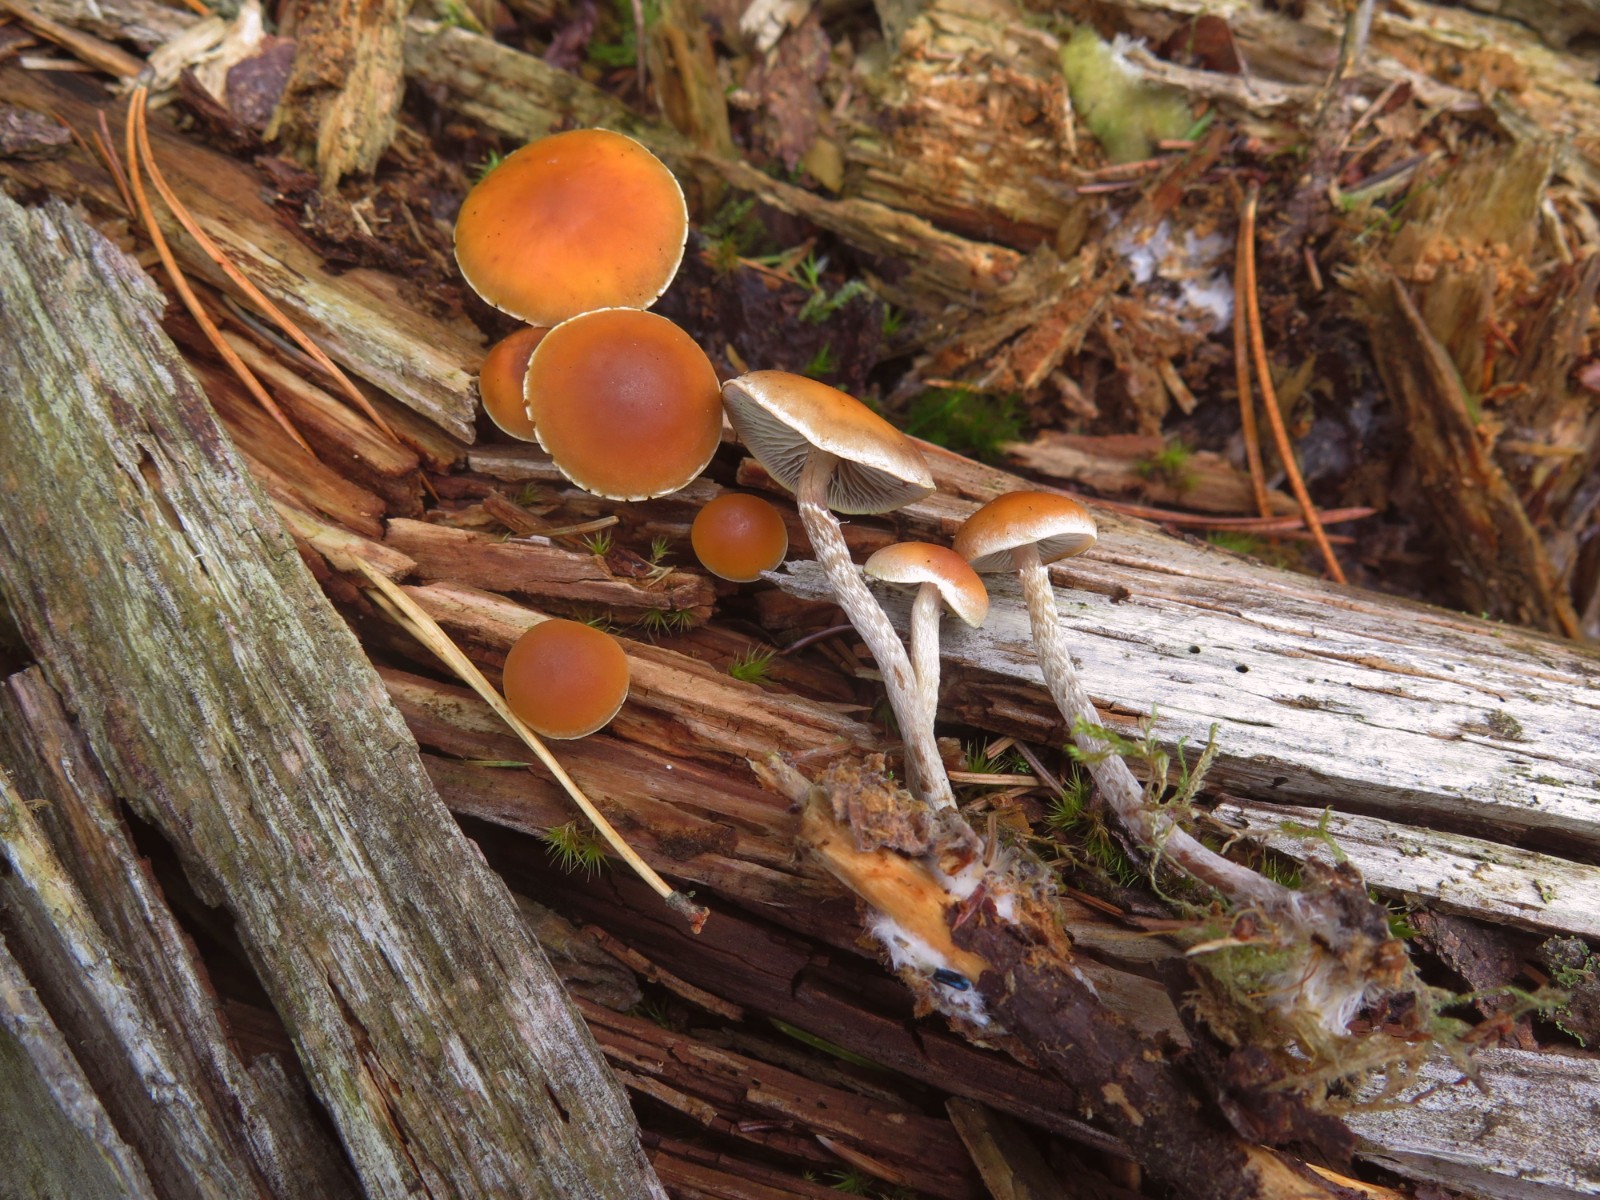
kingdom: Fungi
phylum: Basidiomycota
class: Agaricomycetes
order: Agaricales
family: Strophariaceae
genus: Hypholoma
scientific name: Hypholoma marginatum
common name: enlig svovlhat
